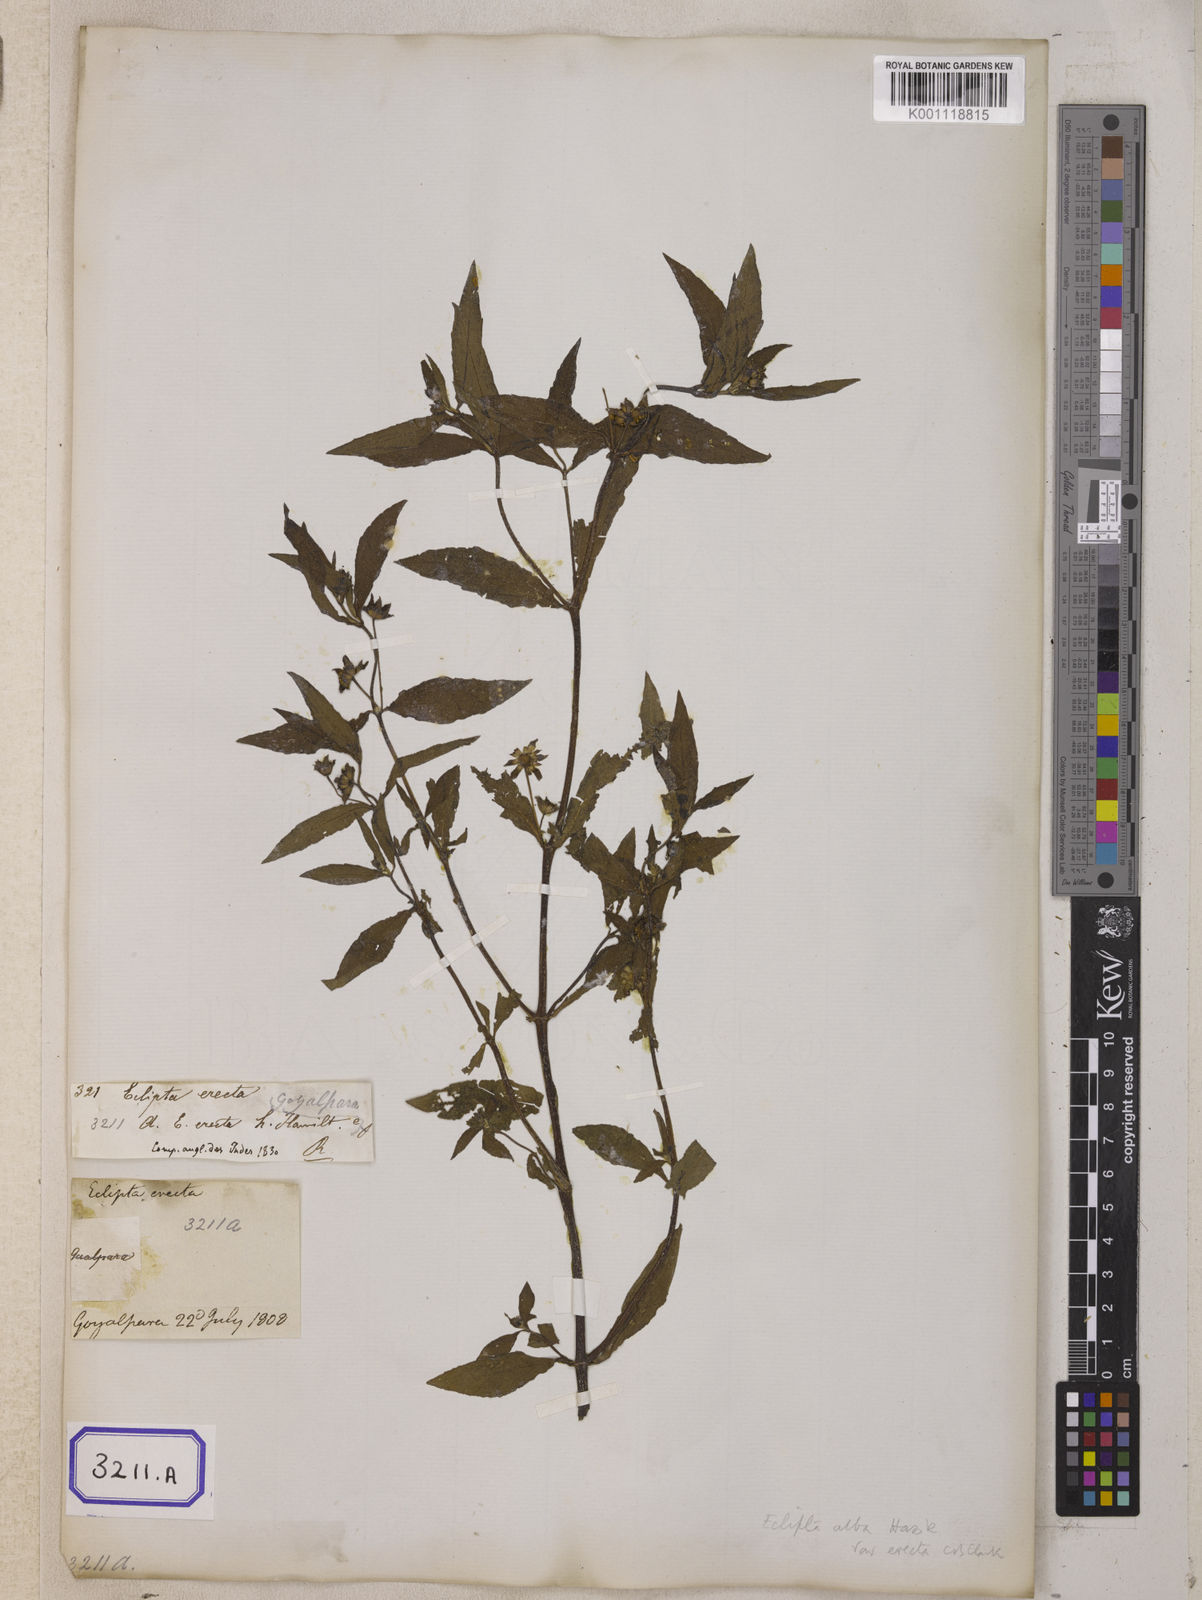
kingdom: Plantae
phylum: Tracheophyta
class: Magnoliopsida
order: Asterales
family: Asteraceae
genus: Eclipta
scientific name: Eclipta alba
